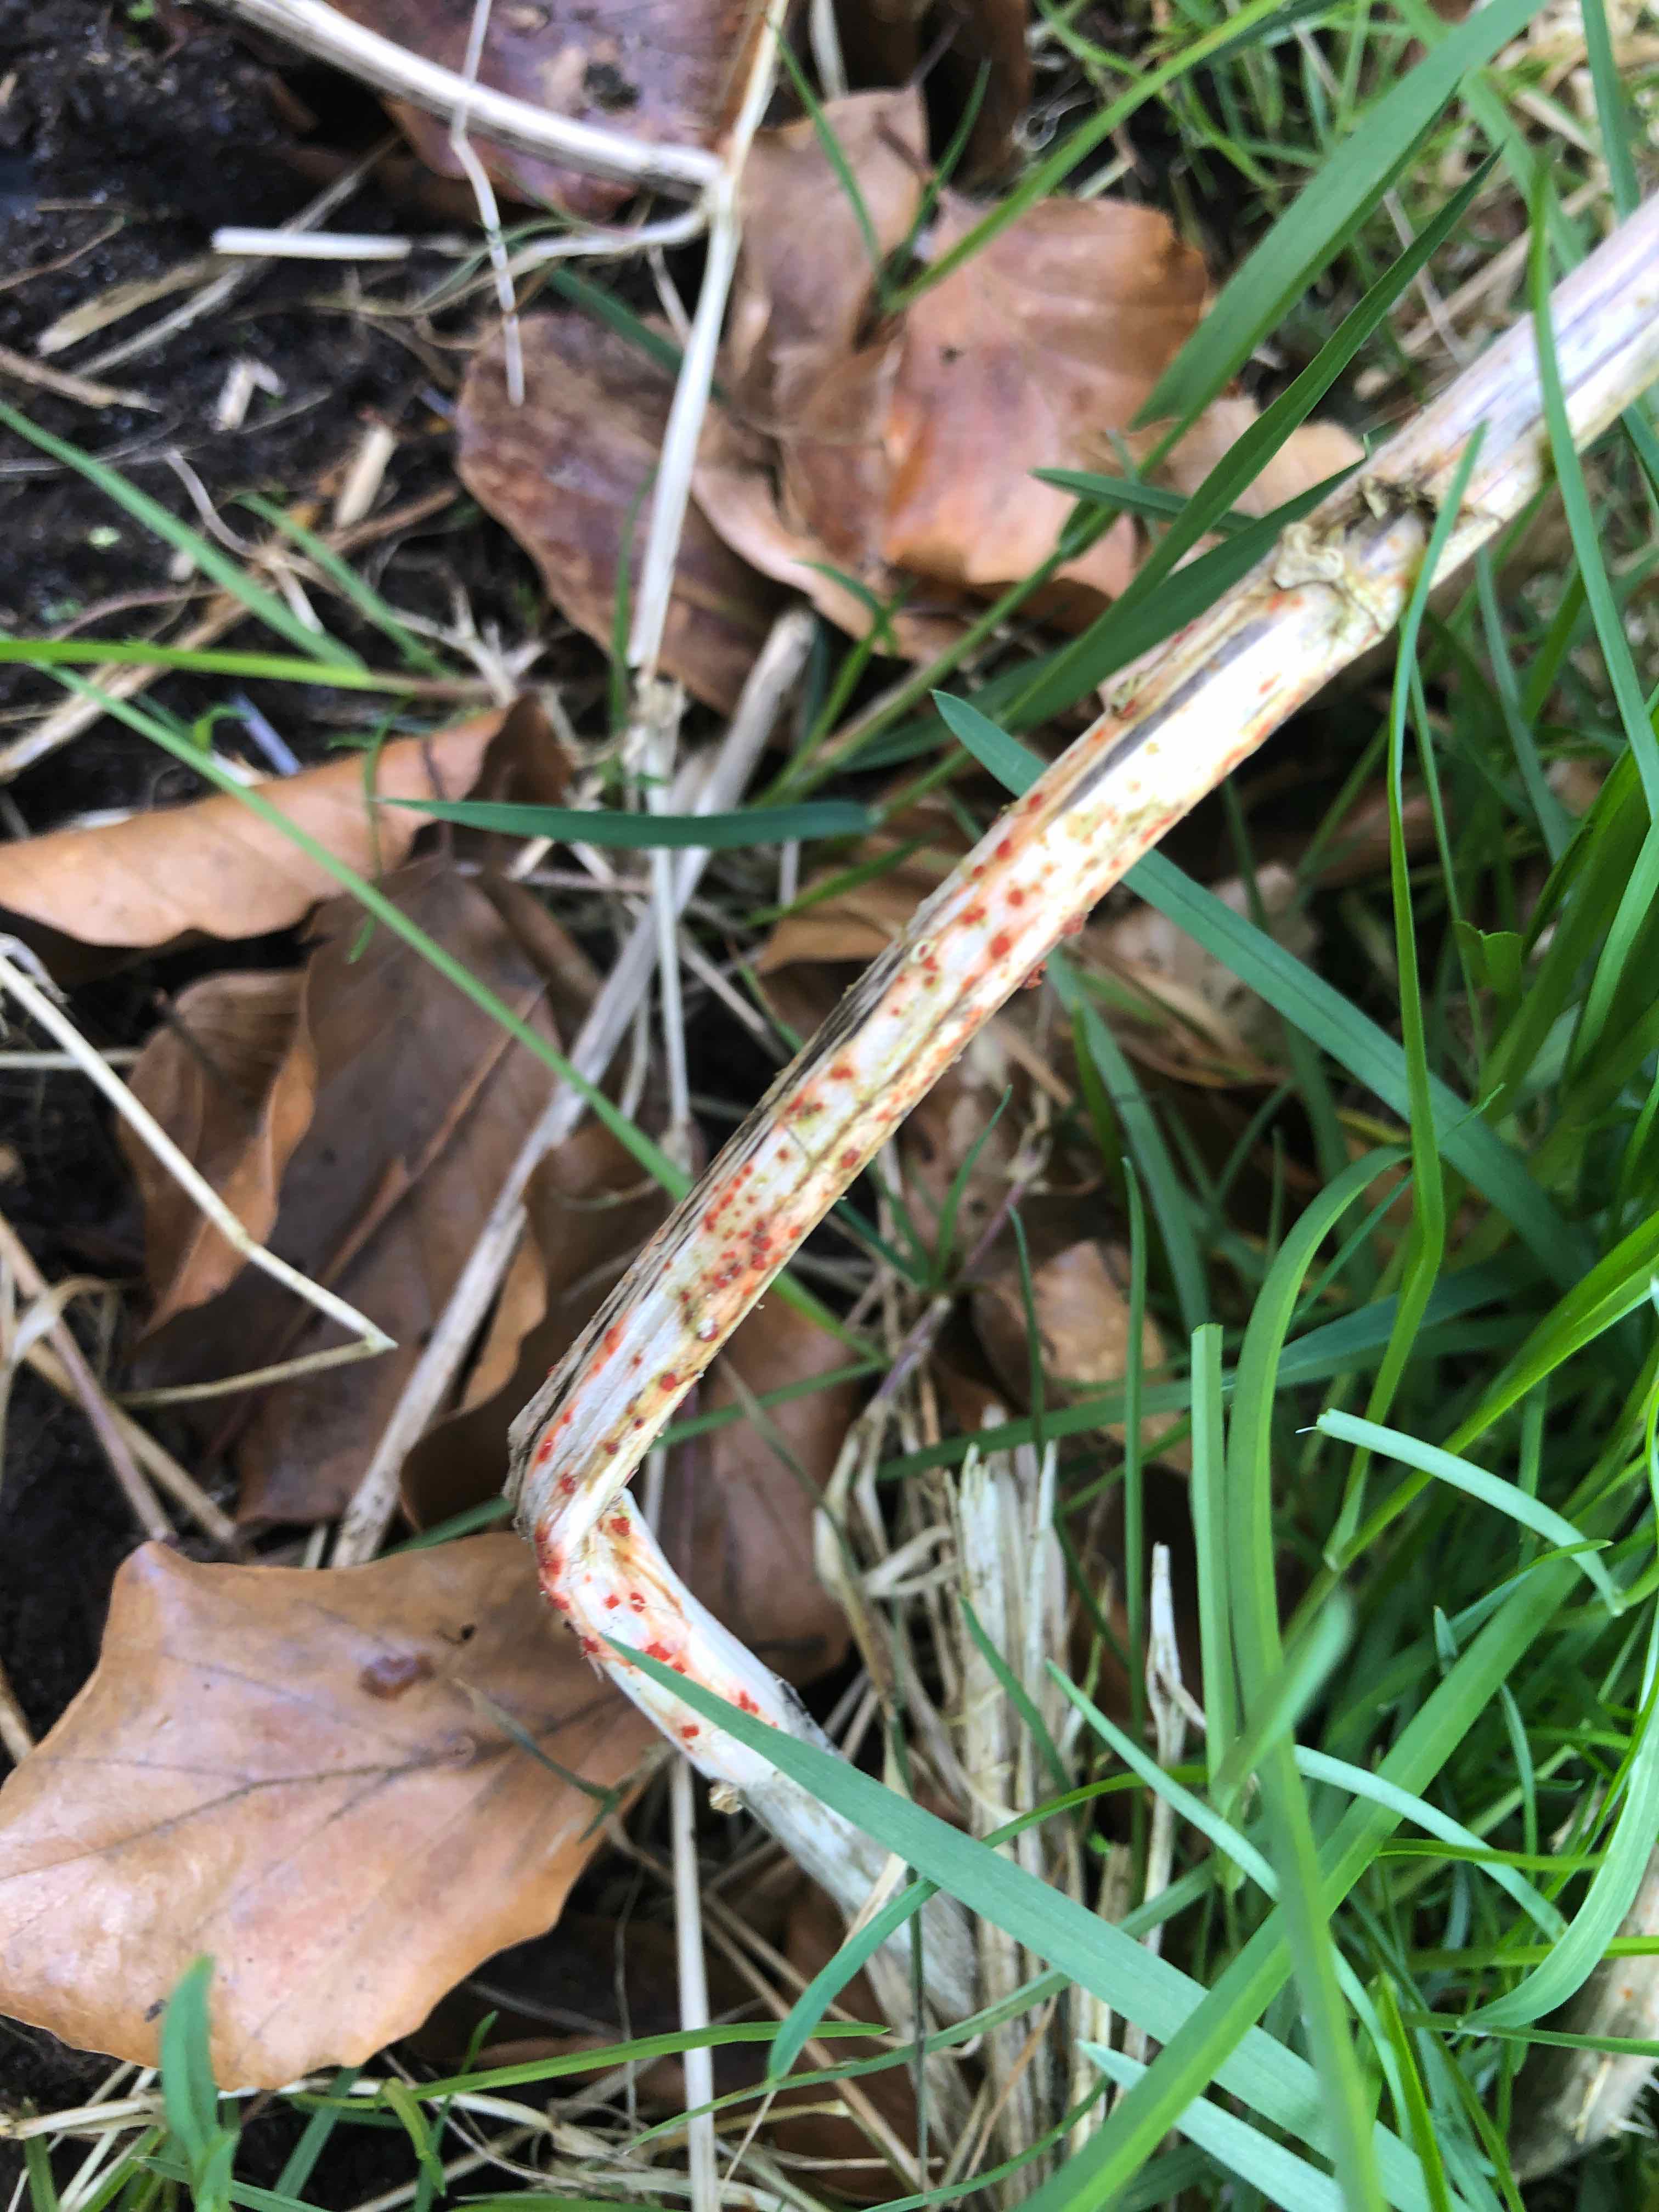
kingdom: Fungi
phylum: Ascomycota
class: Leotiomycetes
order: Helotiales
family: Calloriaceae
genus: Calloria
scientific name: Calloria urticae
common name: nælde-orangeskive
